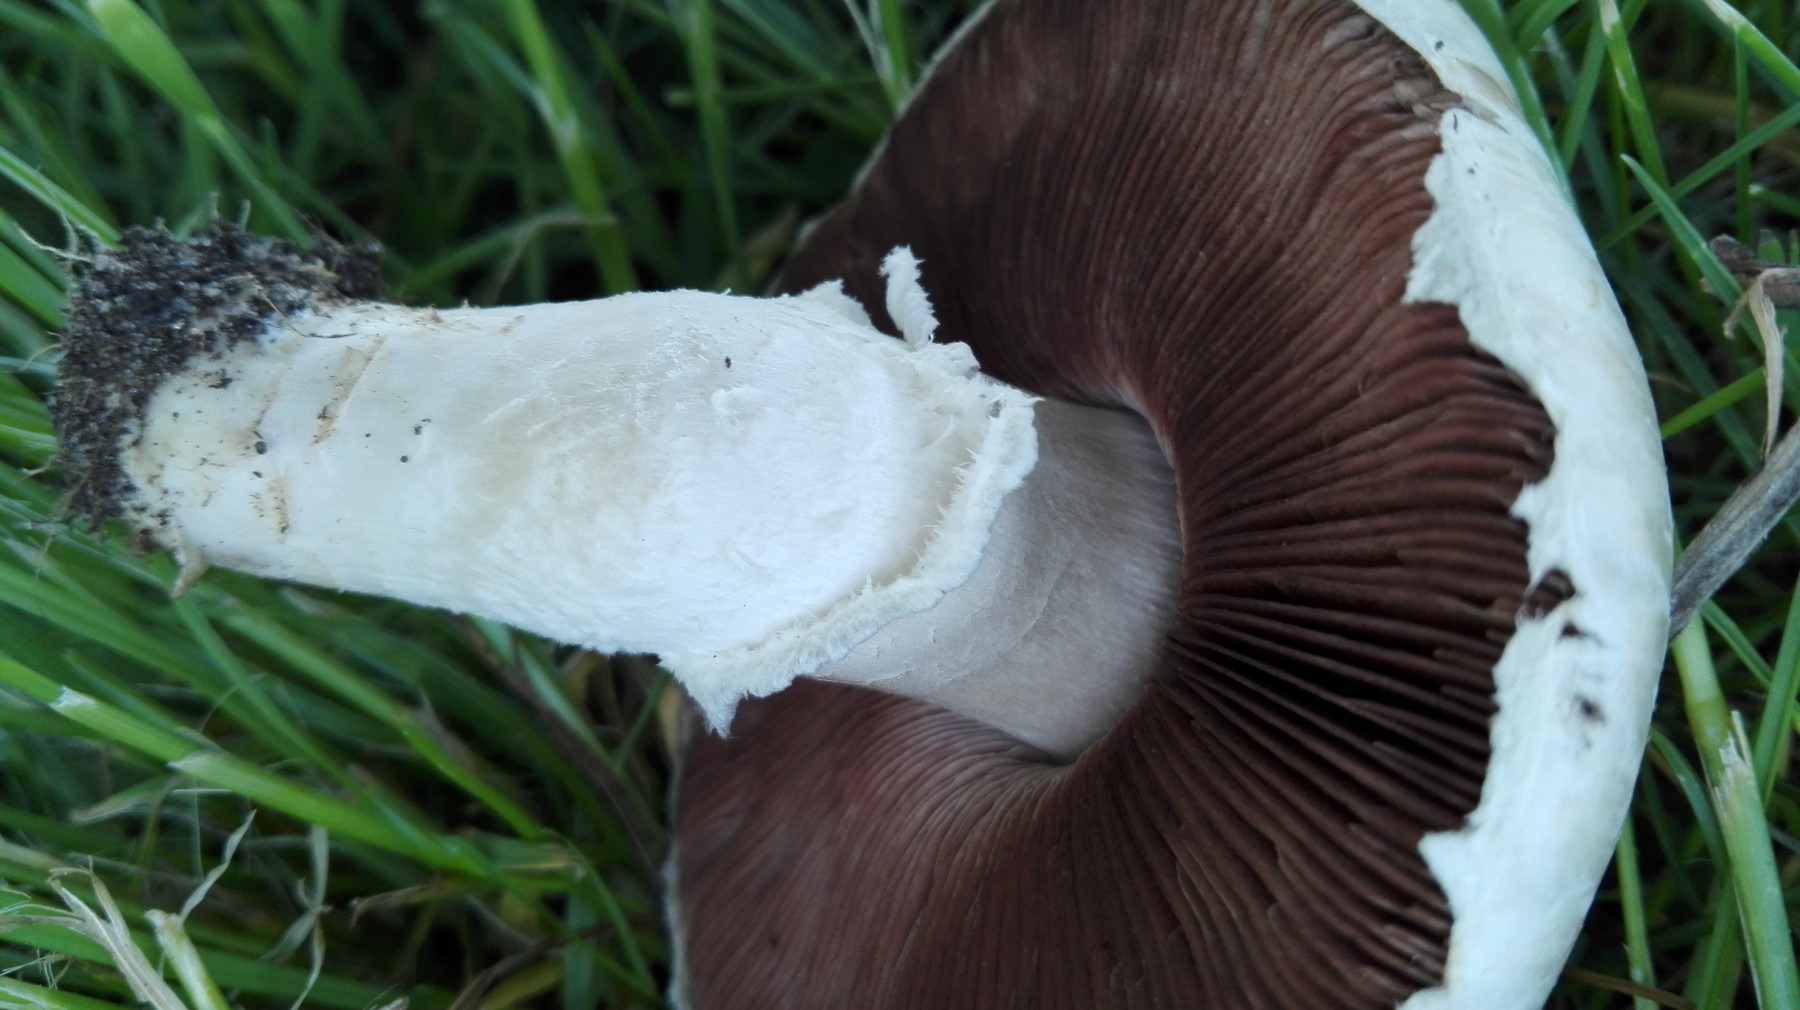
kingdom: Fungi
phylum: Basidiomycota
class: Agaricomycetes
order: Agaricales
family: Agaricaceae
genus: Agaricus
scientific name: Agaricus campestris
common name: mark-champignon
